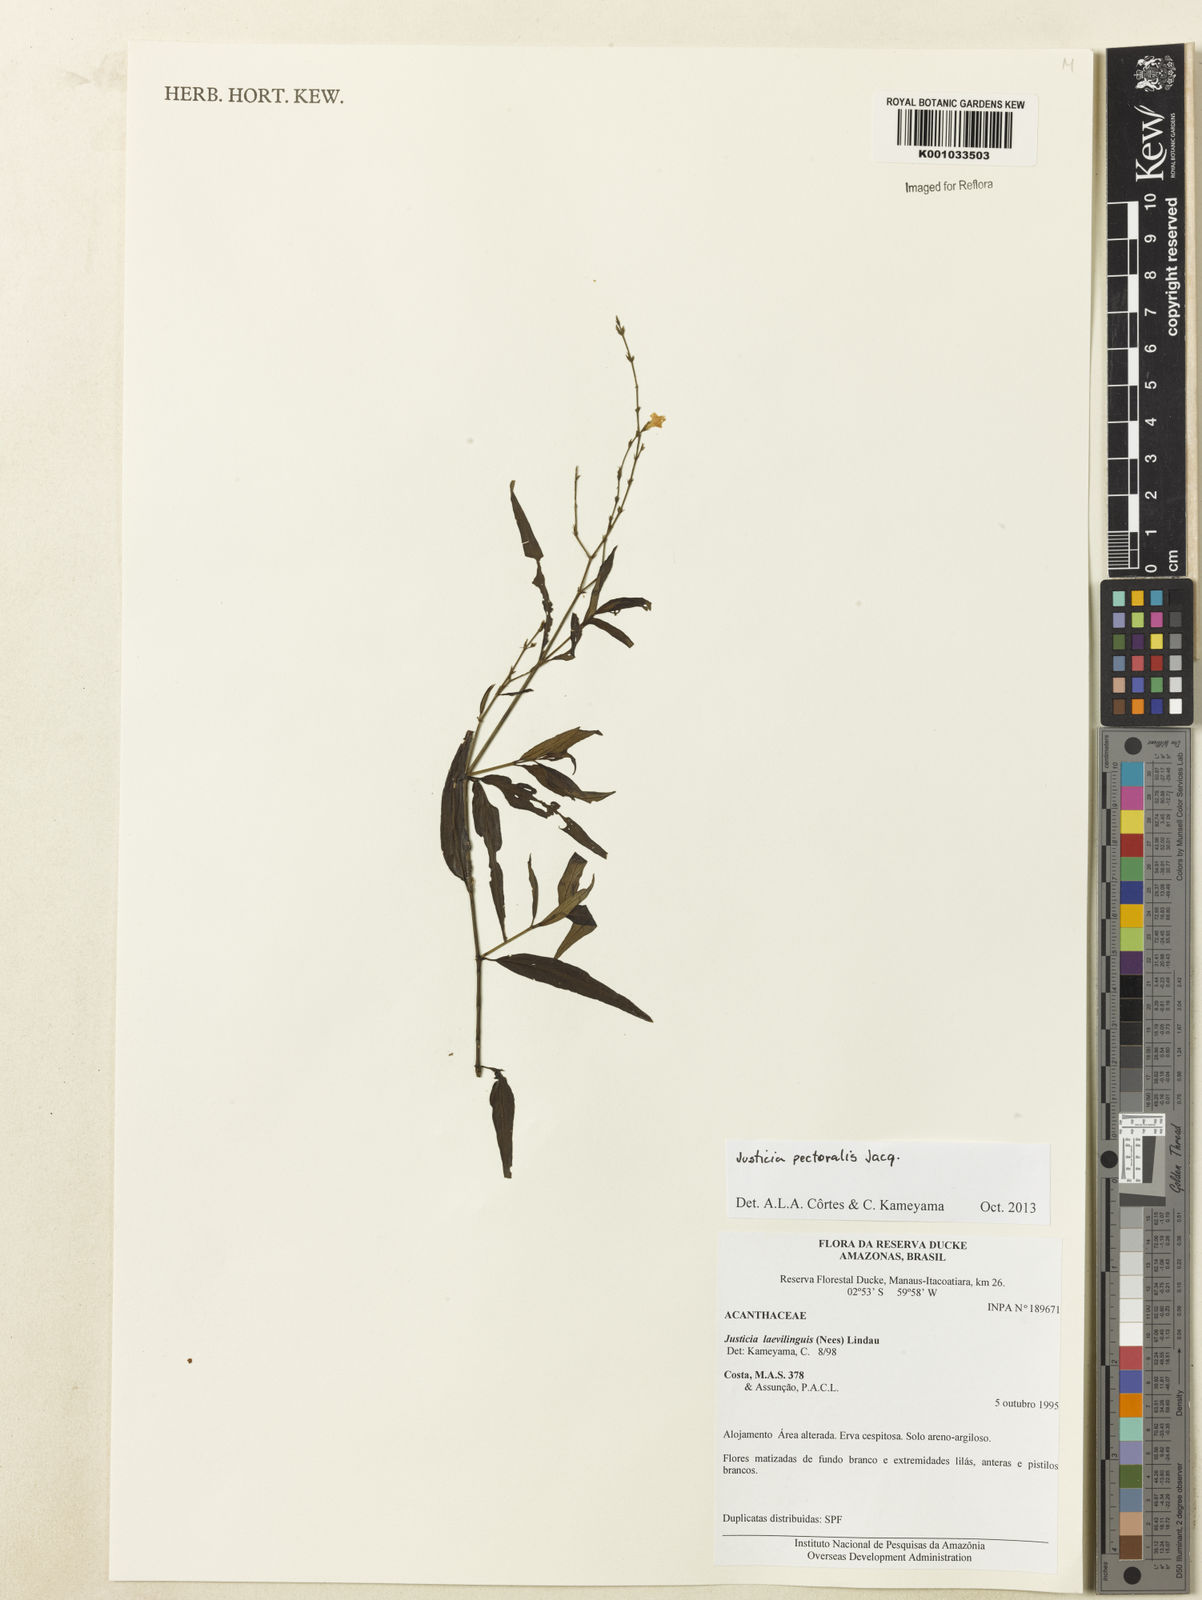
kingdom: Plantae
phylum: Tracheophyta
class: Magnoliopsida
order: Lamiales
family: Acanthaceae
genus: Dianthera
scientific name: Dianthera pectoralis
